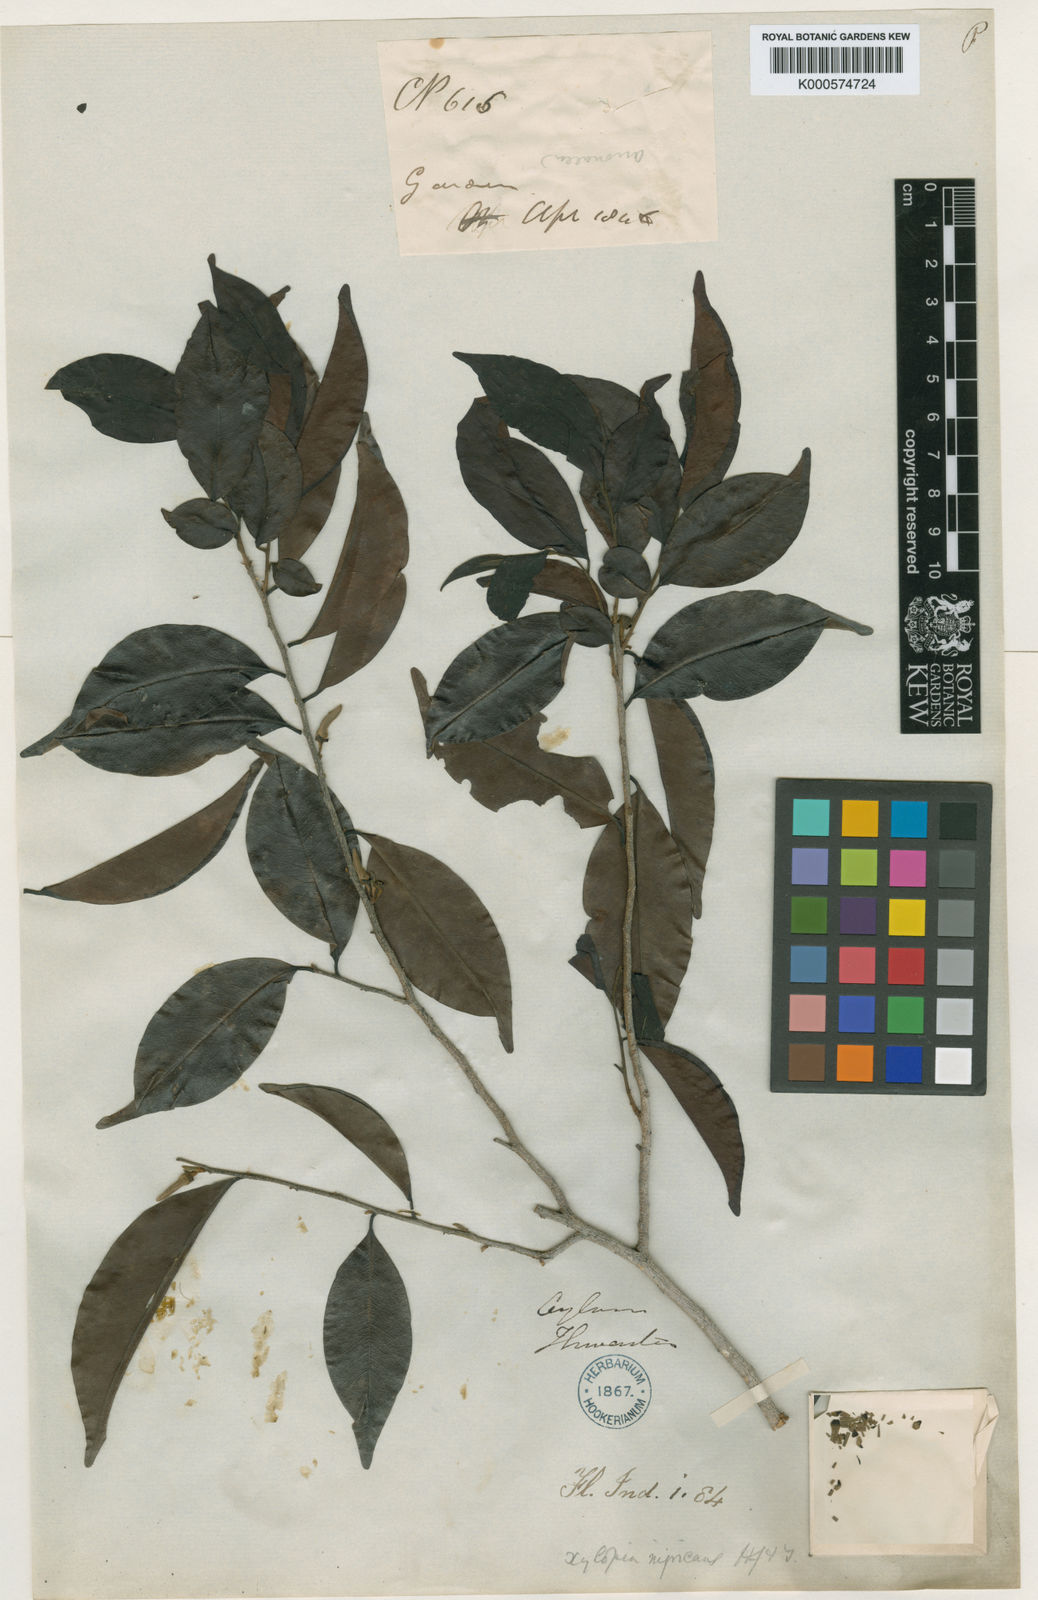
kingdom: Plantae
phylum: Tracheophyta
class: Magnoliopsida
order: Magnoliales
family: Annonaceae
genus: Xylopia
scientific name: Xylopia nigricans
